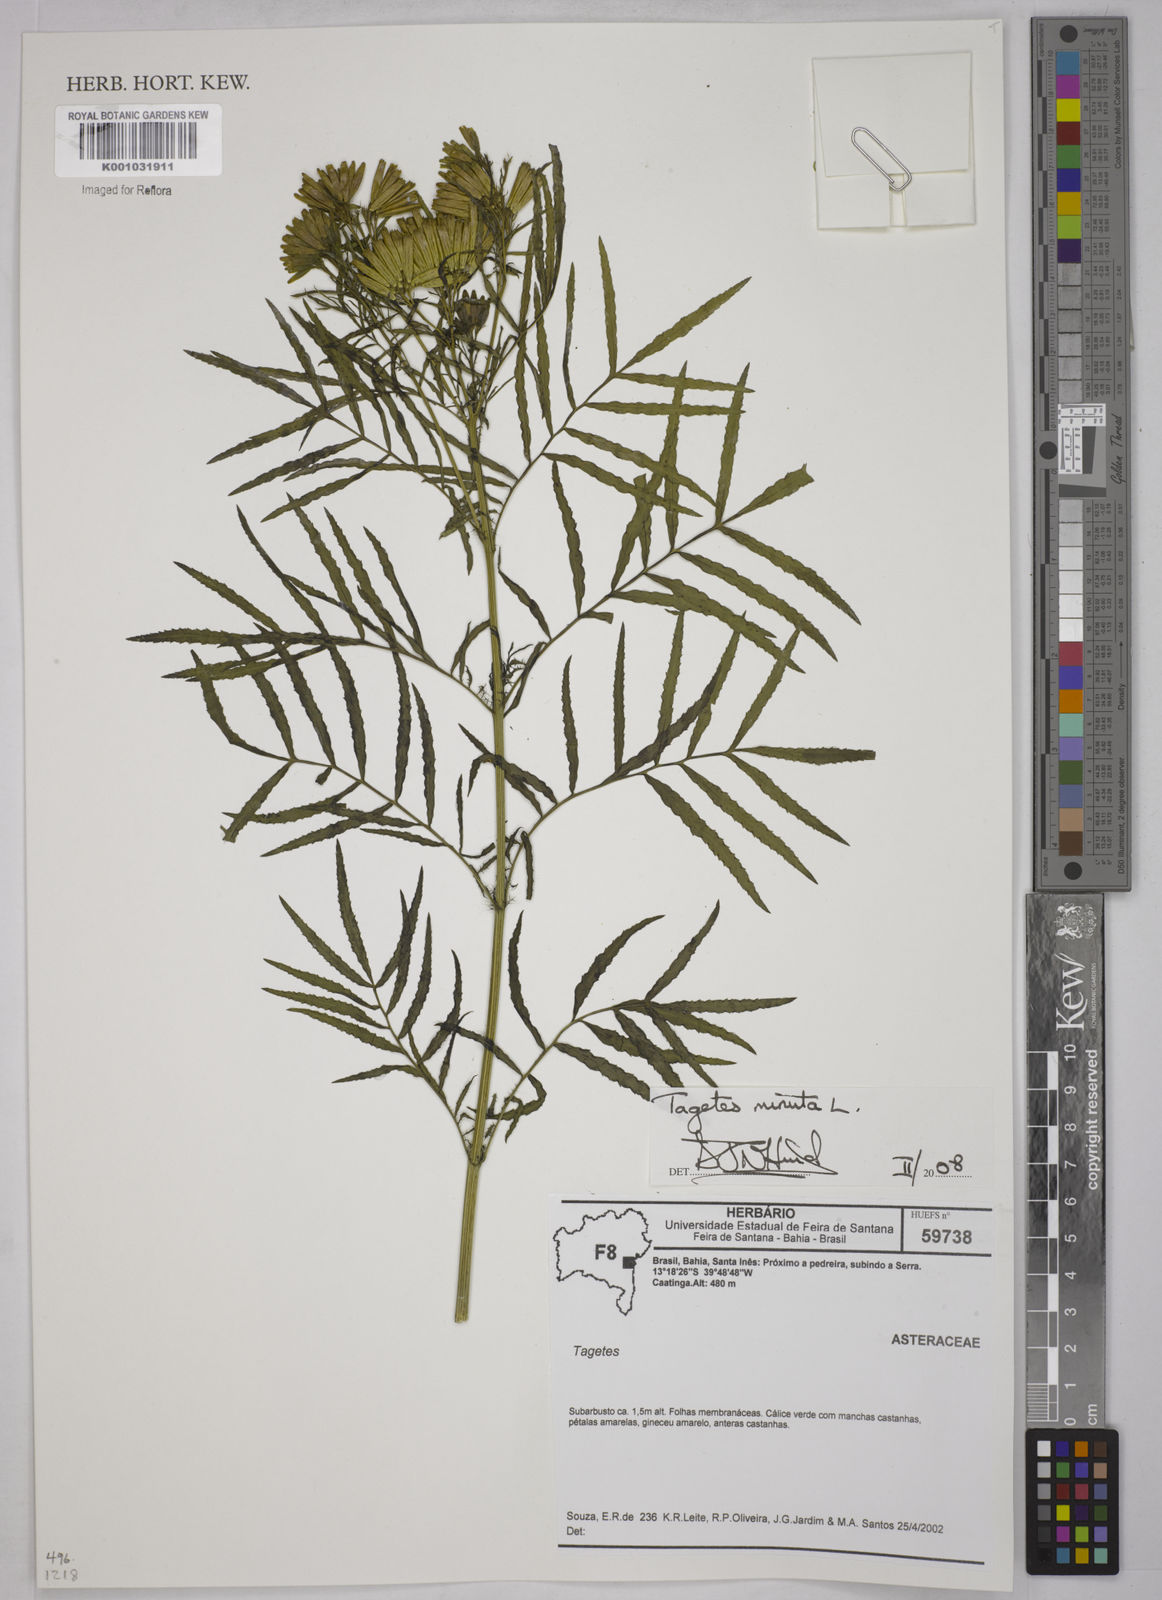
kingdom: Plantae
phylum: Tracheophyta
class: Magnoliopsida
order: Asterales
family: Asteraceae
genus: Tagetes
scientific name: Tagetes minuta
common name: Muster john henry
